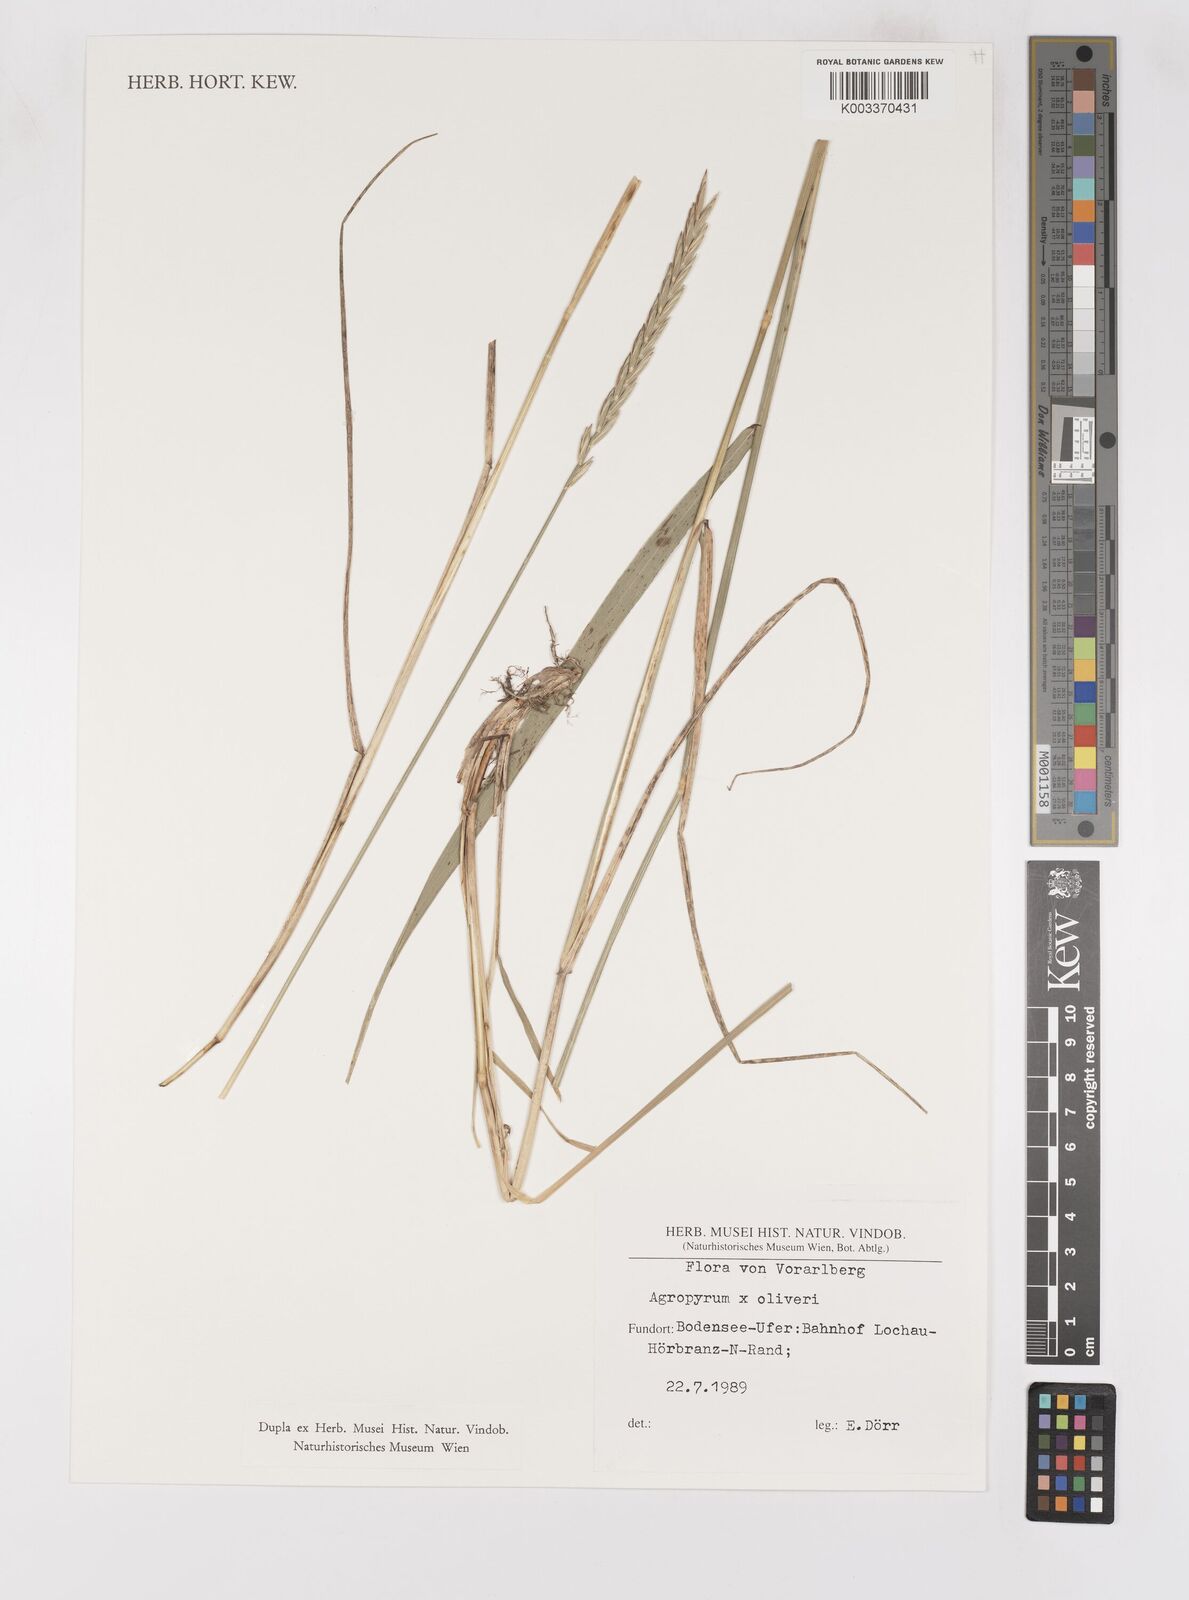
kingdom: Plantae
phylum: Tracheophyta
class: Liliopsida
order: Poales
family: Poaceae
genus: Elymus
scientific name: Elymus oliveri
